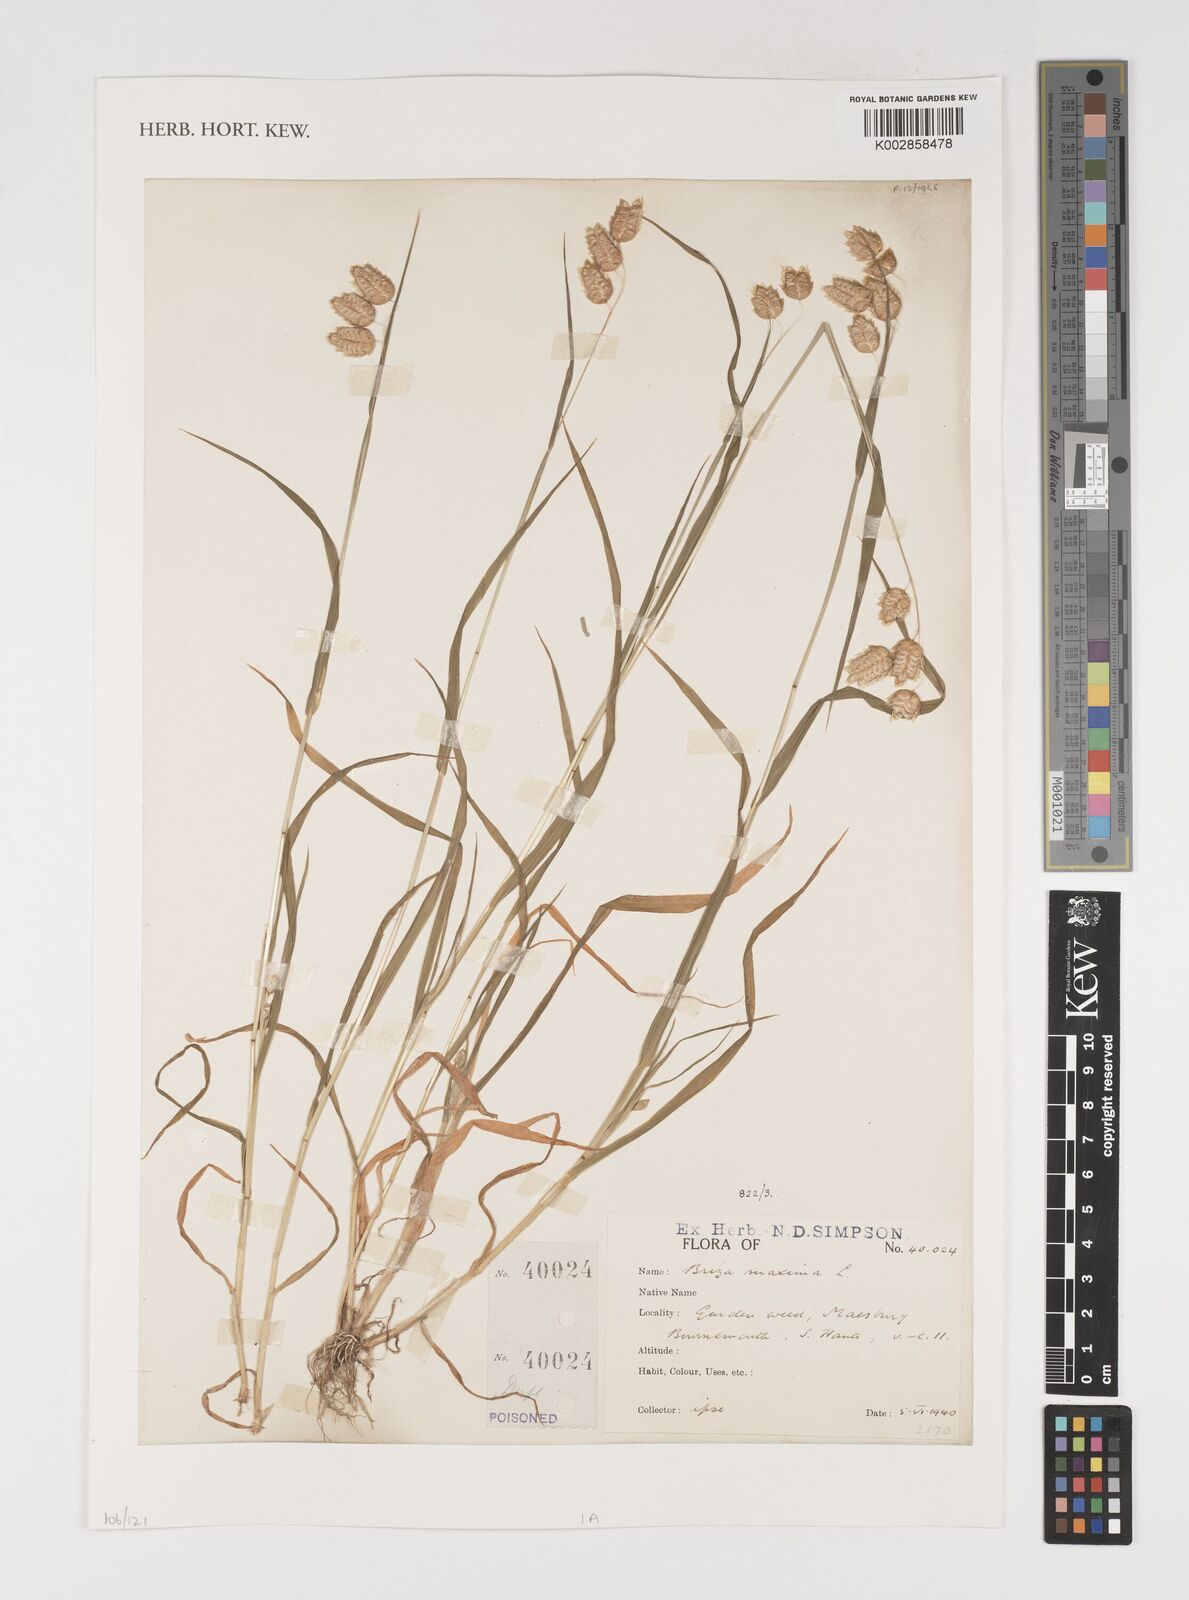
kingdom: Plantae
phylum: Tracheophyta
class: Liliopsida
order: Poales
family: Poaceae
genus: Briza
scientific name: Briza maxima
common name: Big quakinggrass
